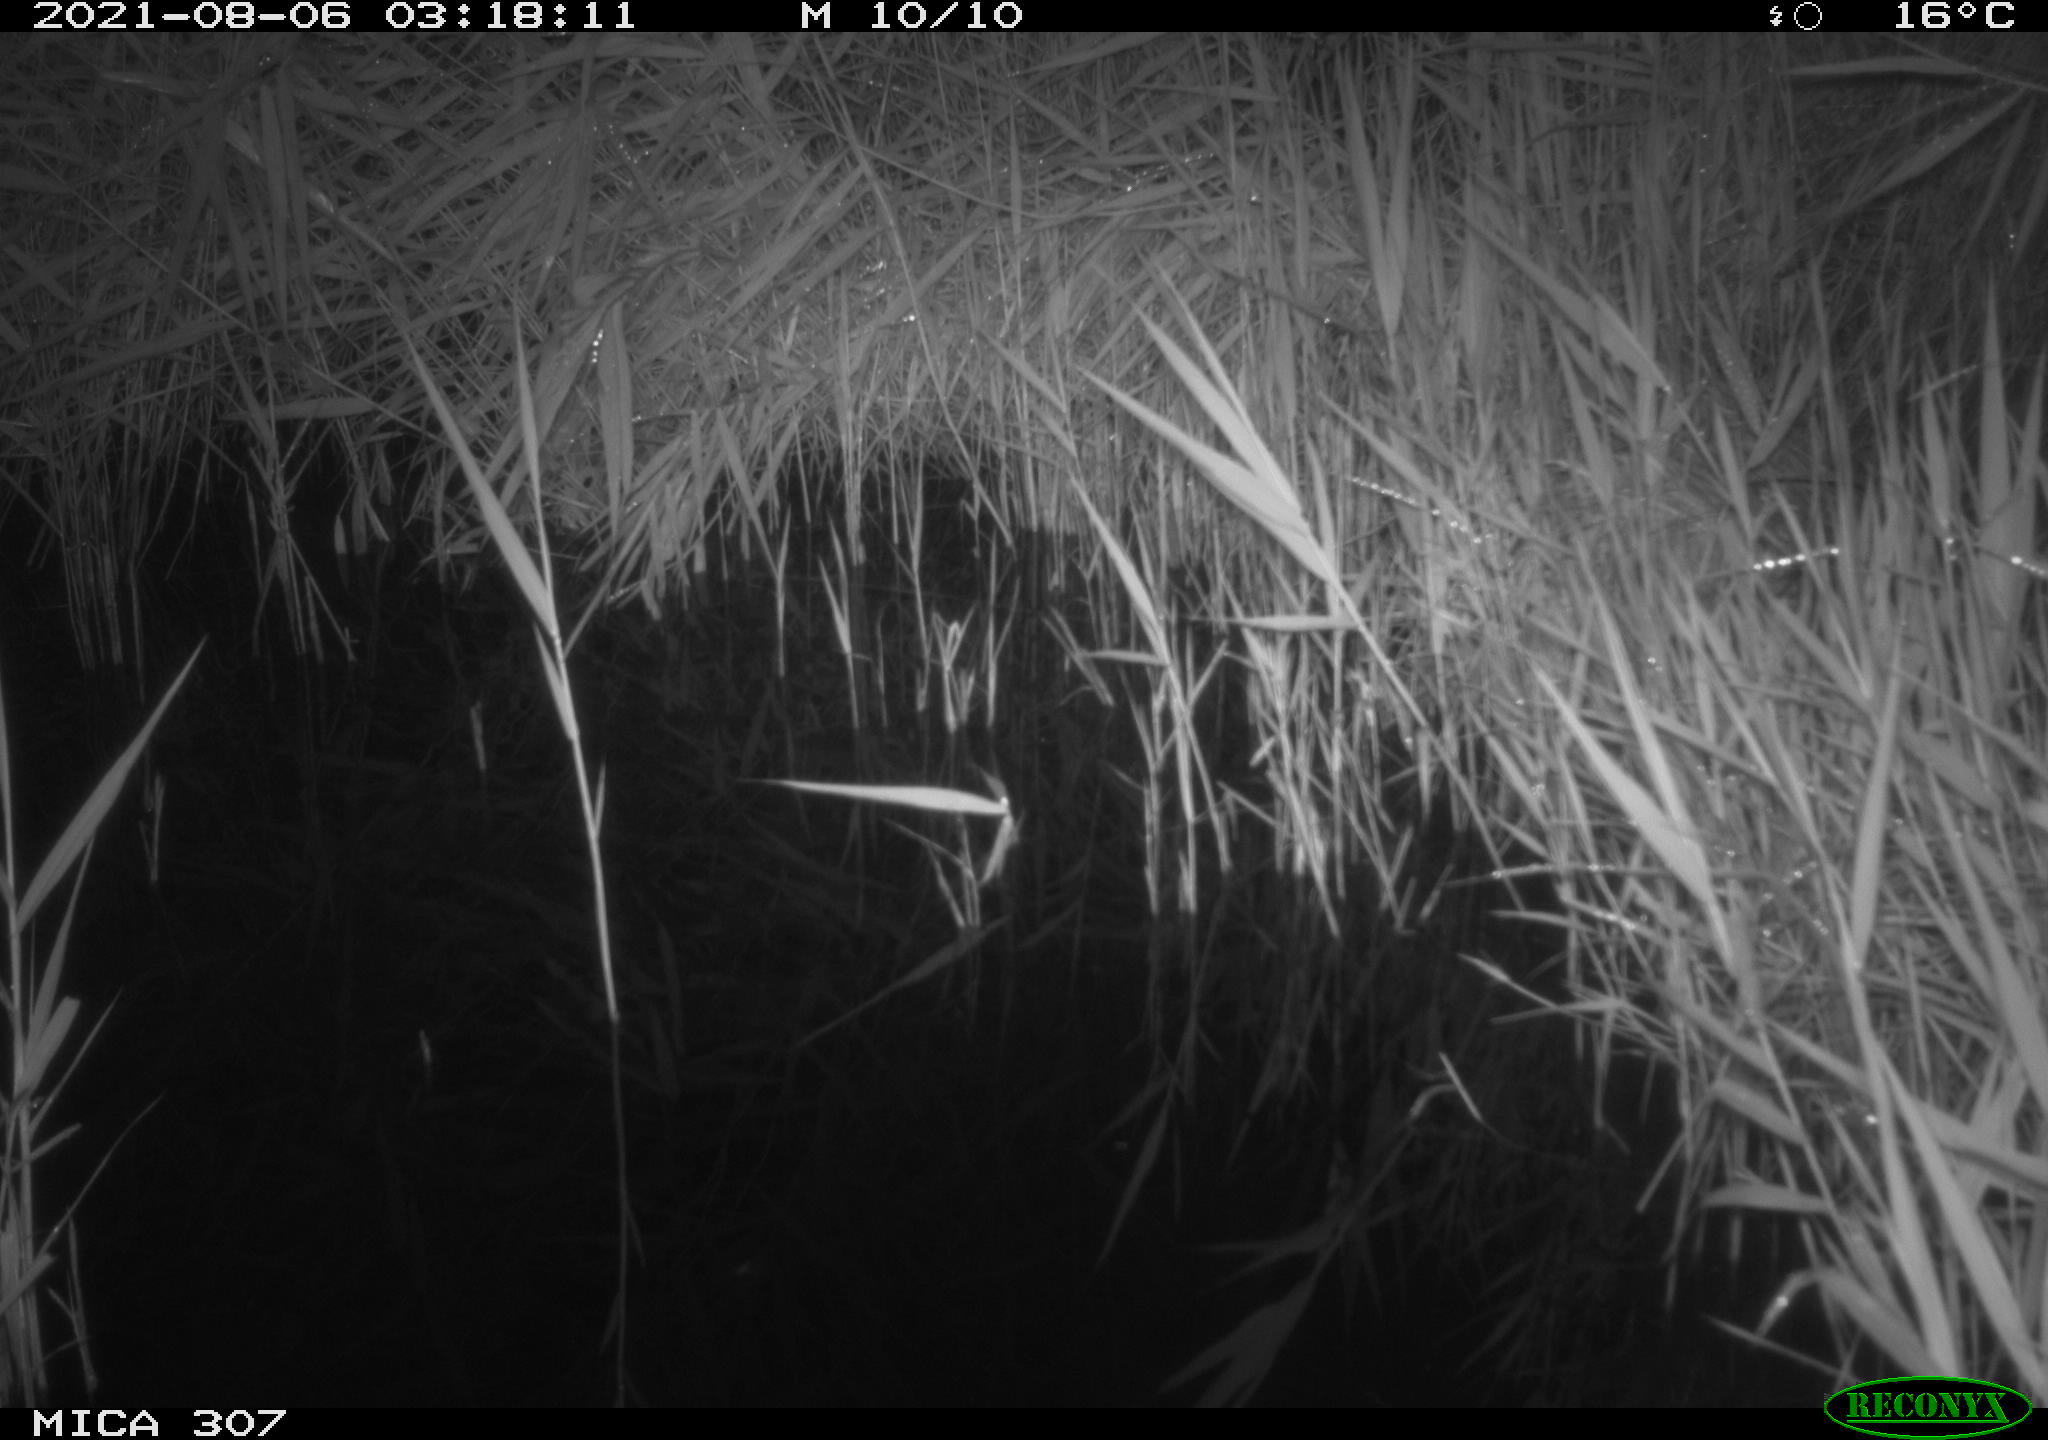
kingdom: Animalia
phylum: Chordata
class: Mammalia
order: Rodentia
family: Muridae
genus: Rattus
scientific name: Rattus norvegicus
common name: Brown rat
